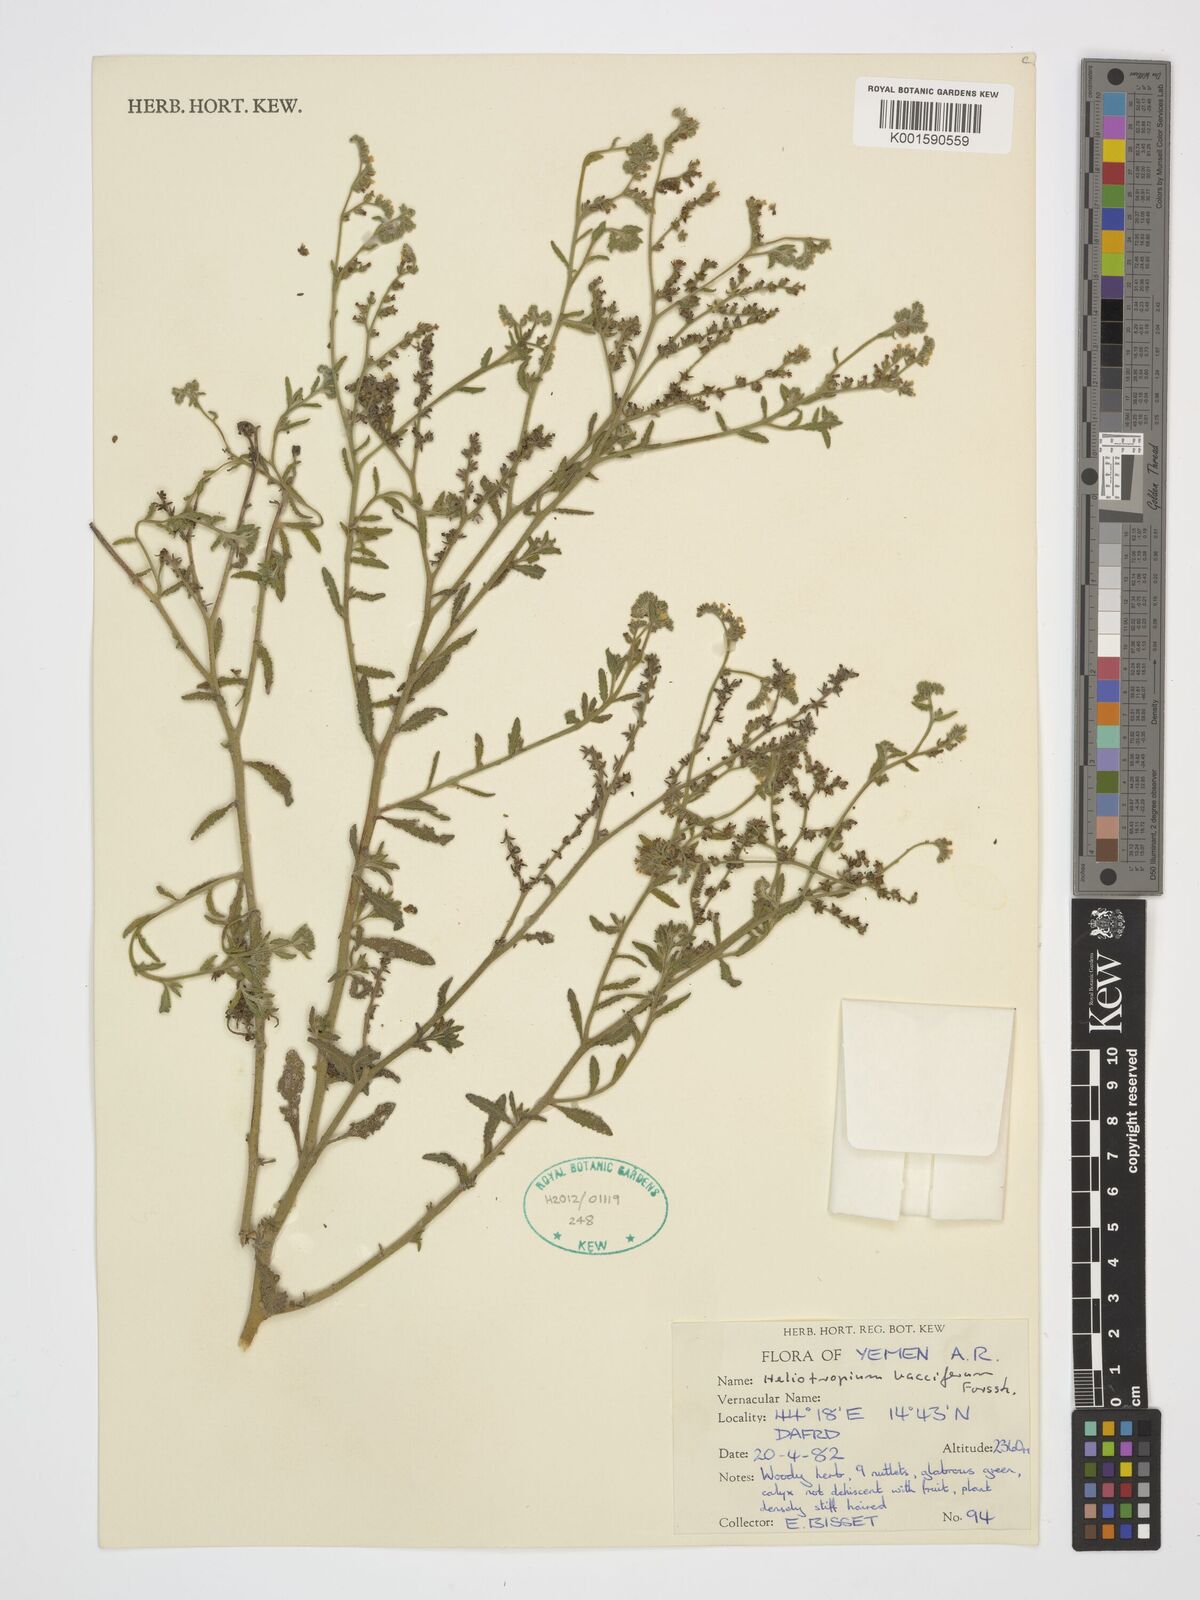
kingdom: Plantae
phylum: Tracheophyta
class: Magnoliopsida
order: Boraginales
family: Heliotropiaceae
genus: Heliotropium
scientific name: Heliotropium bacciferum
